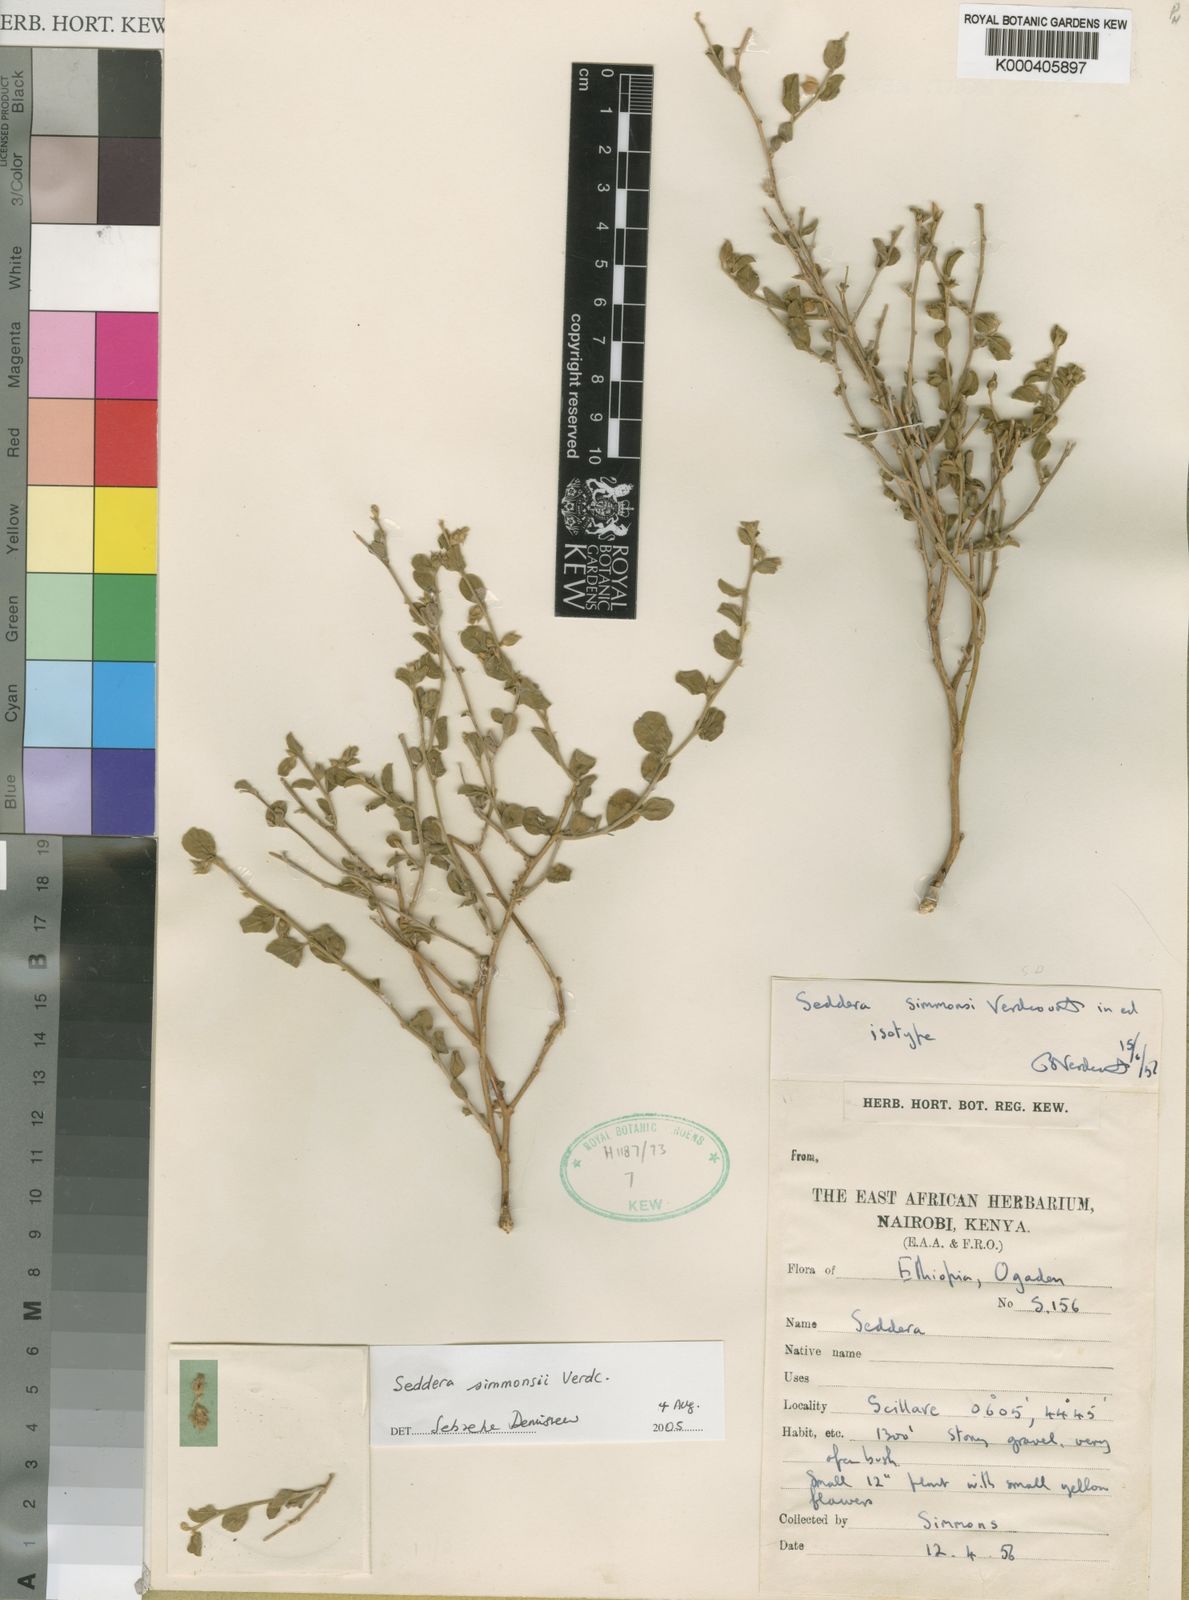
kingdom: Plantae
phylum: Tracheophyta
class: Magnoliopsida
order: Solanales
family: Convolvulaceae
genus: Seddera
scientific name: Seddera simmonsii
